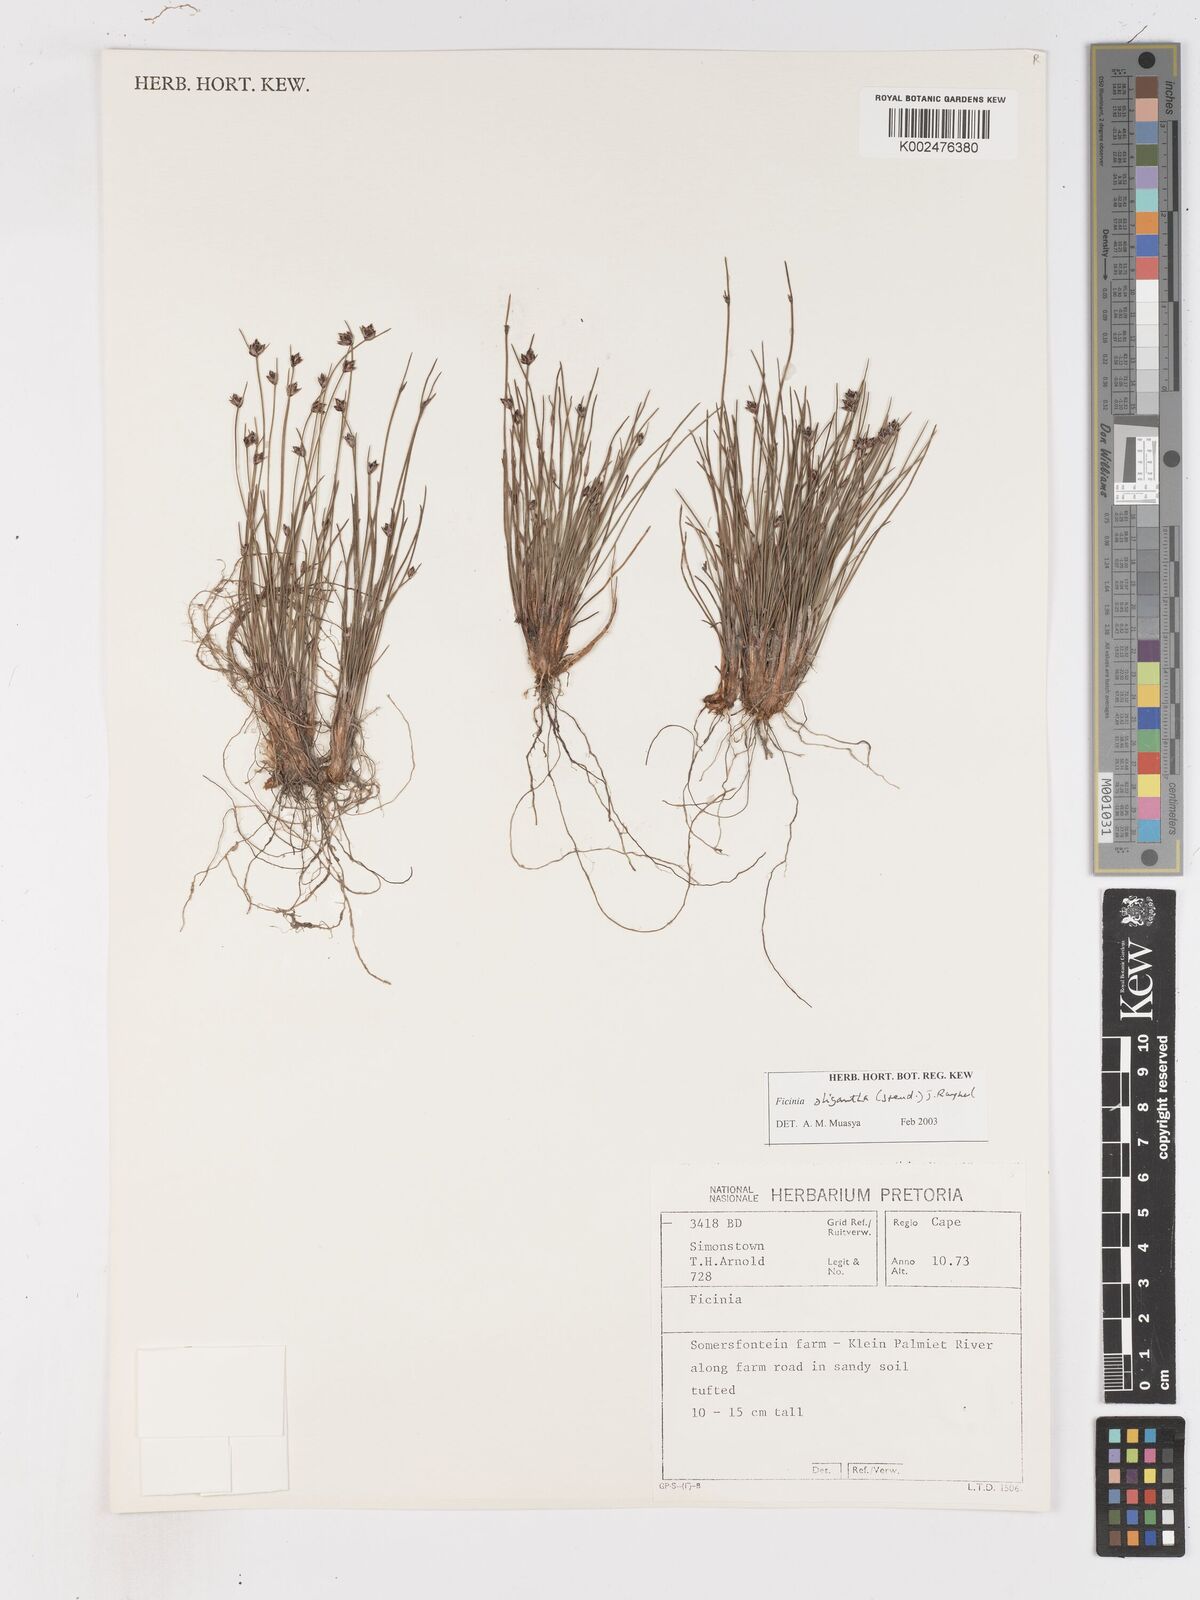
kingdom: Plantae
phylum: Tracheophyta
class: Liliopsida
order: Poales
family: Cyperaceae
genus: Ficinia
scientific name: Ficinia oligantha
